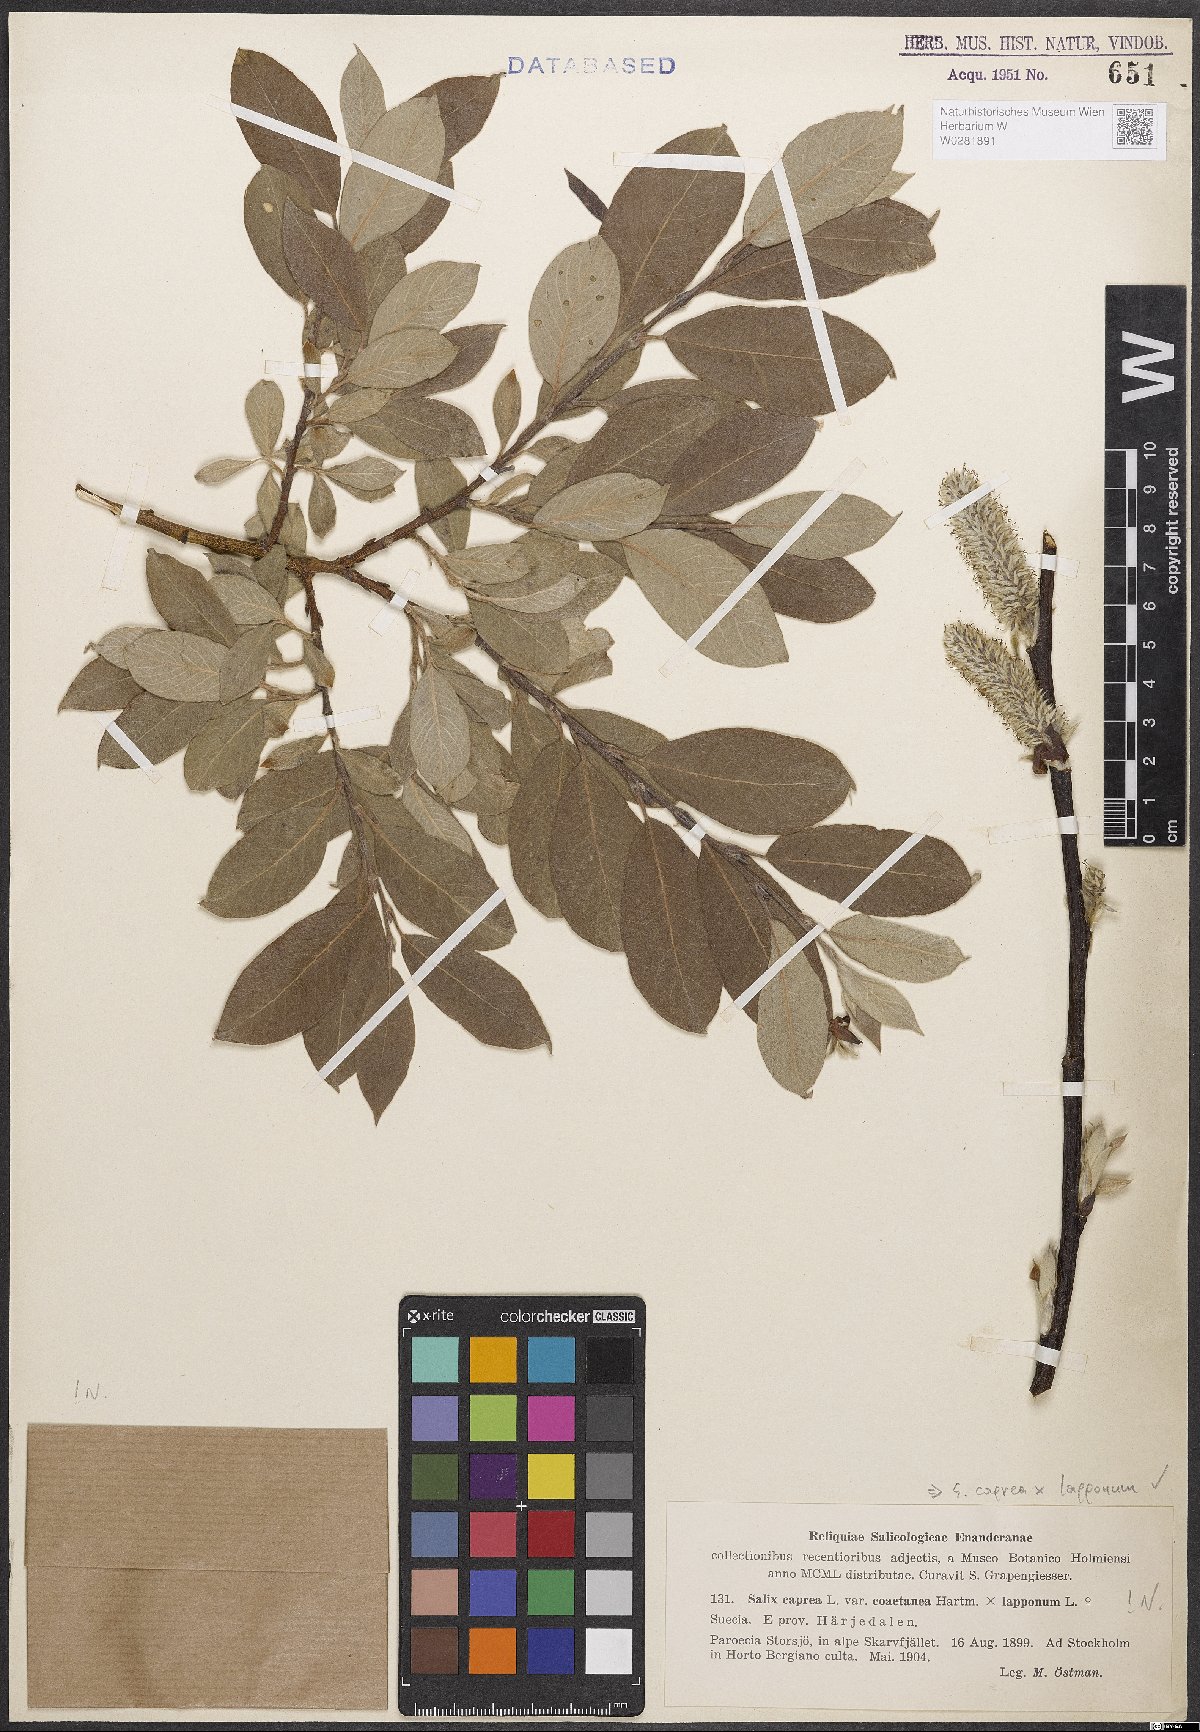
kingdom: Plantae
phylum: Tracheophyta
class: Magnoliopsida
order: Malpighiales
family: Salicaceae
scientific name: Salicaceae
